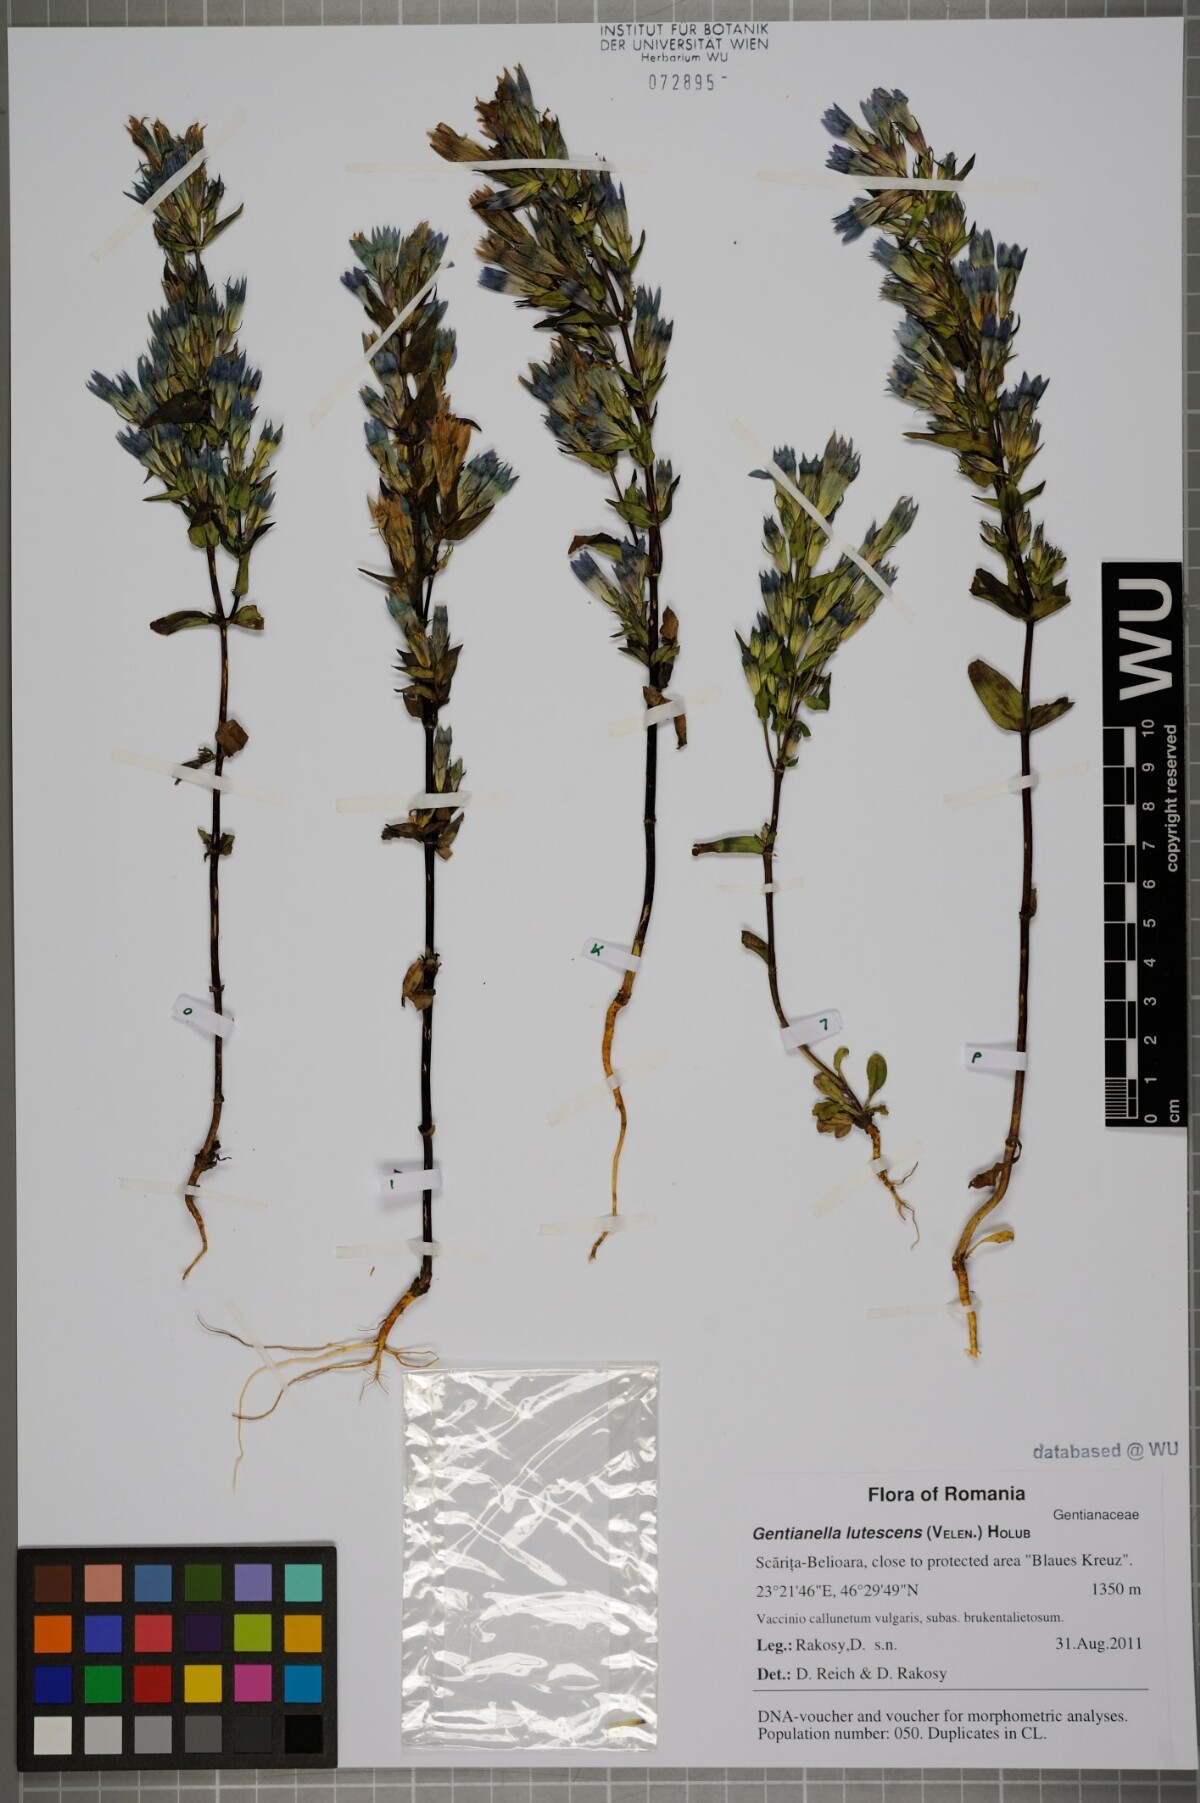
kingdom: Plantae
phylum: Tracheophyta
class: Magnoliopsida
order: Gentianales
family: Gentianaceae
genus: Gentianella
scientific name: Gentianella praecox
